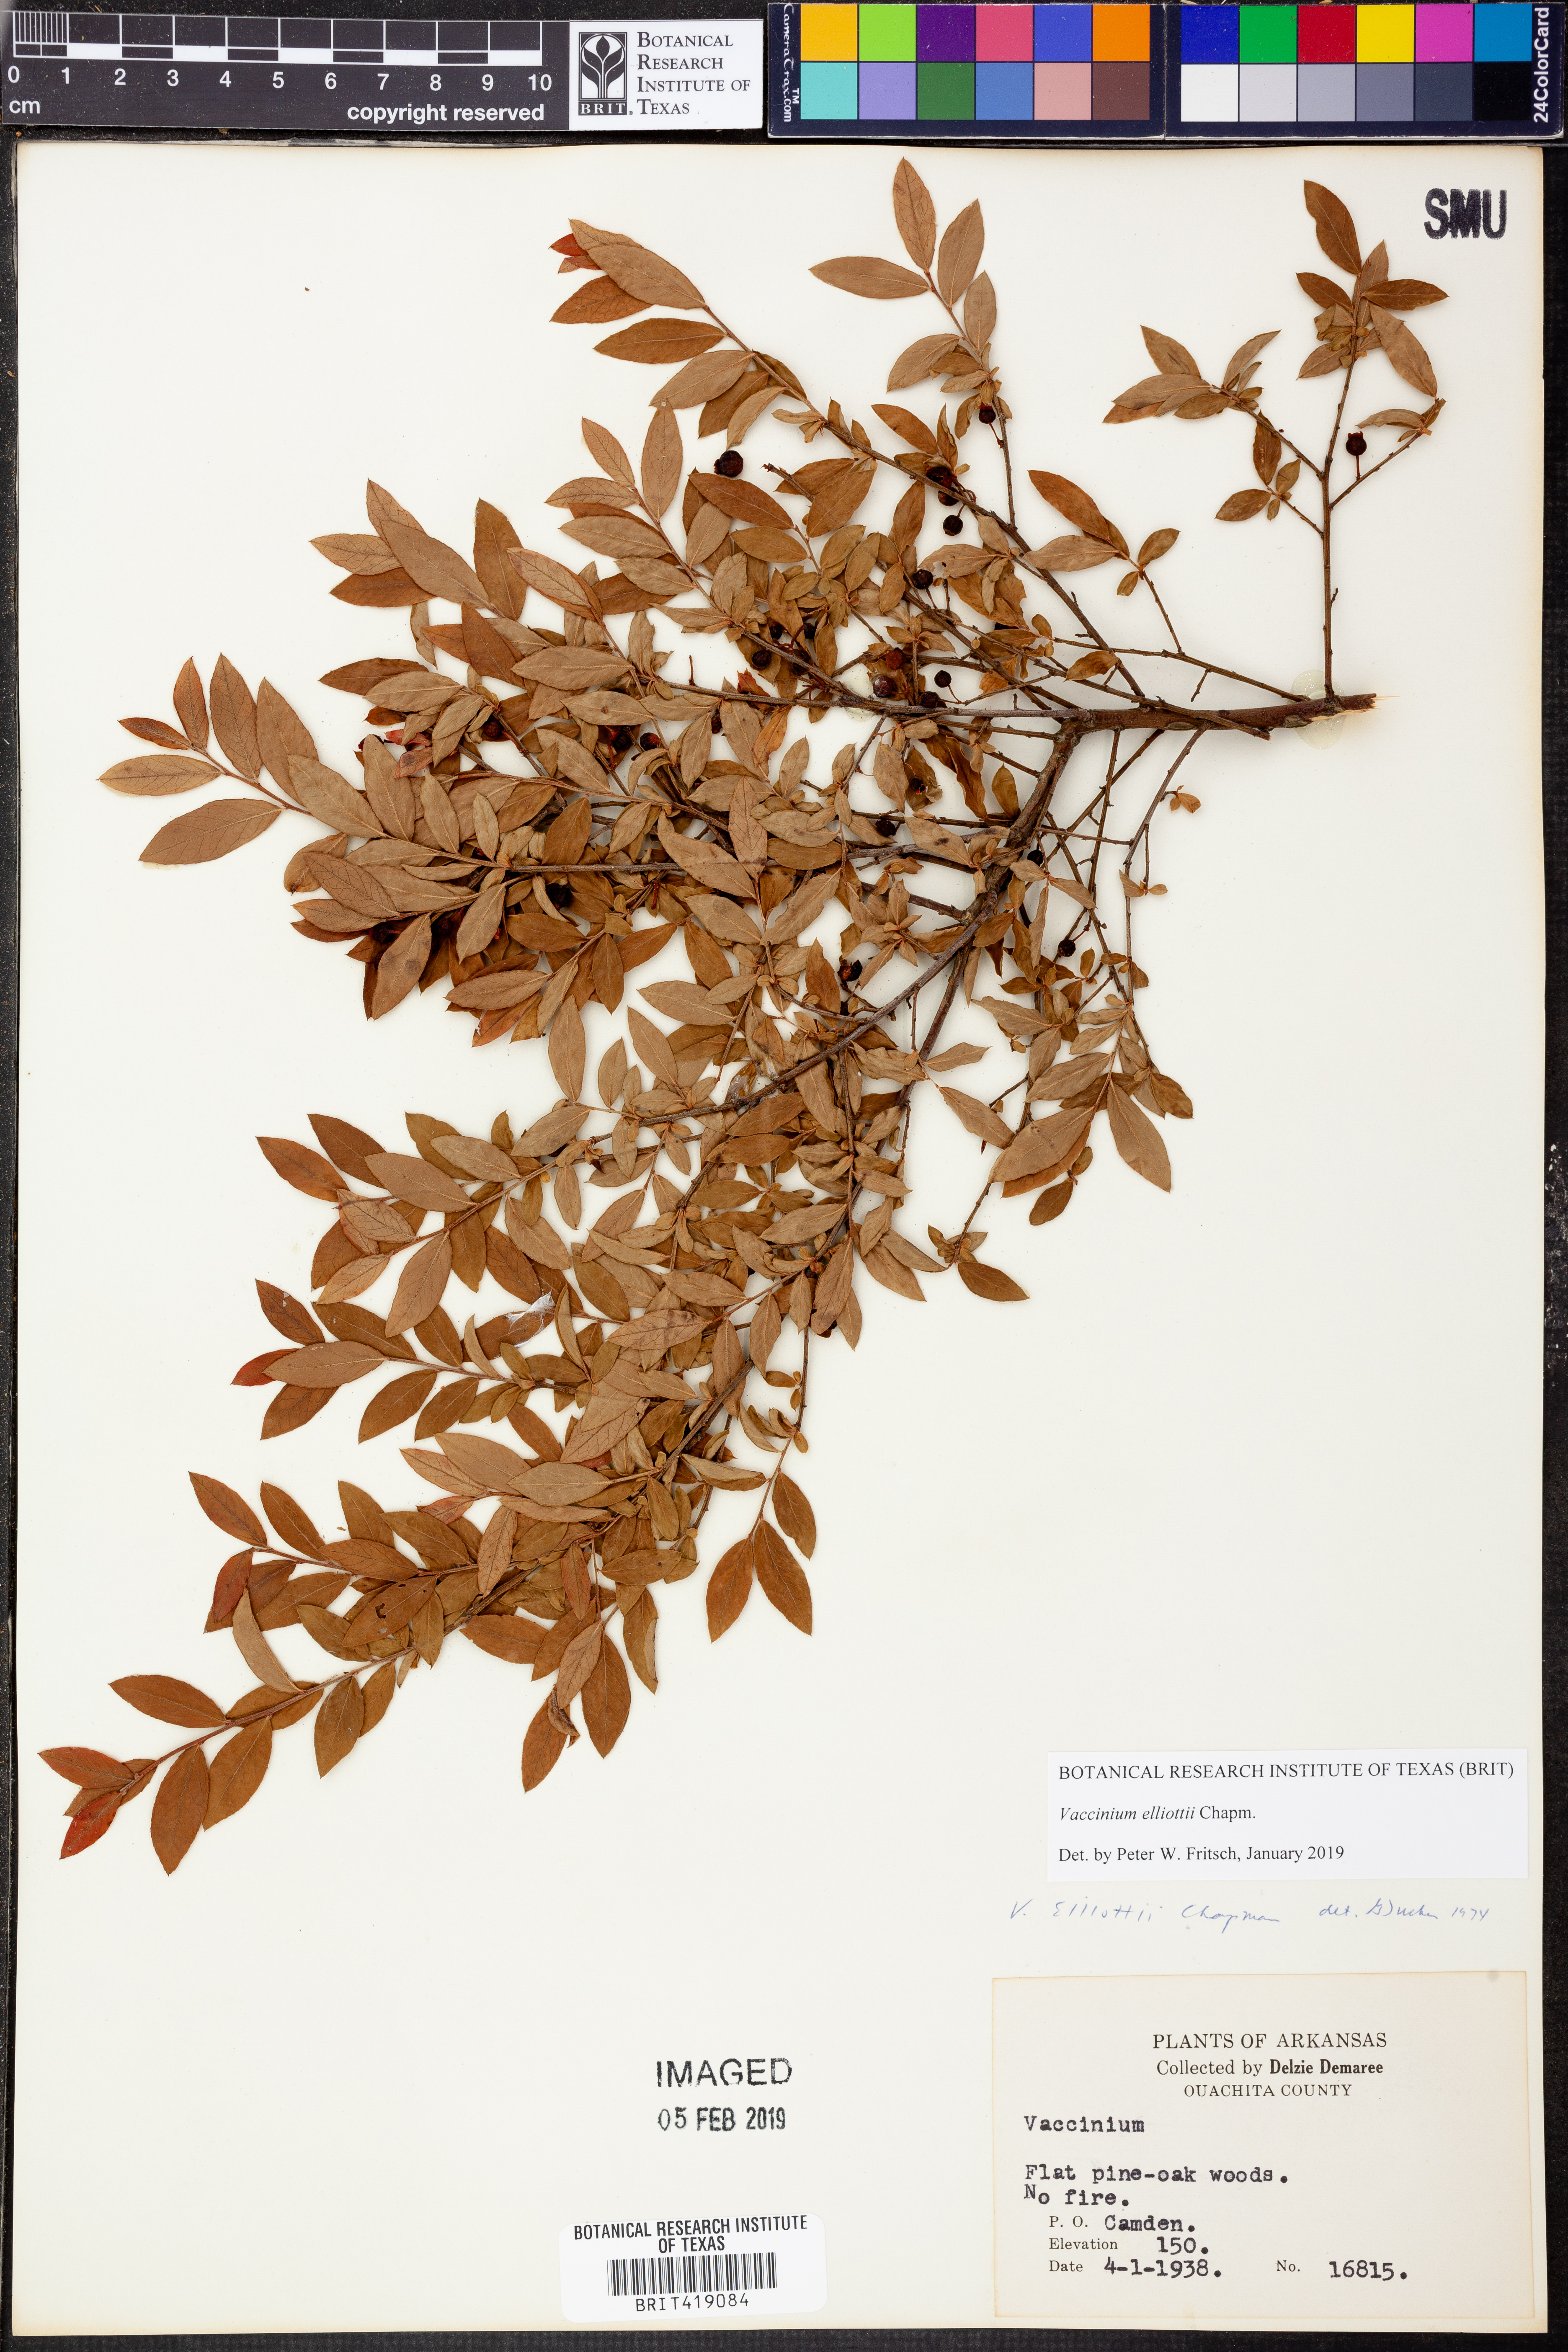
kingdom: Plantae
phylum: Tracheophyta
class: Magnoliopsida
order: Ericales
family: Ericaceae
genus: Vaccinium
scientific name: Vaccinium corymbosum
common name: Blueberry
